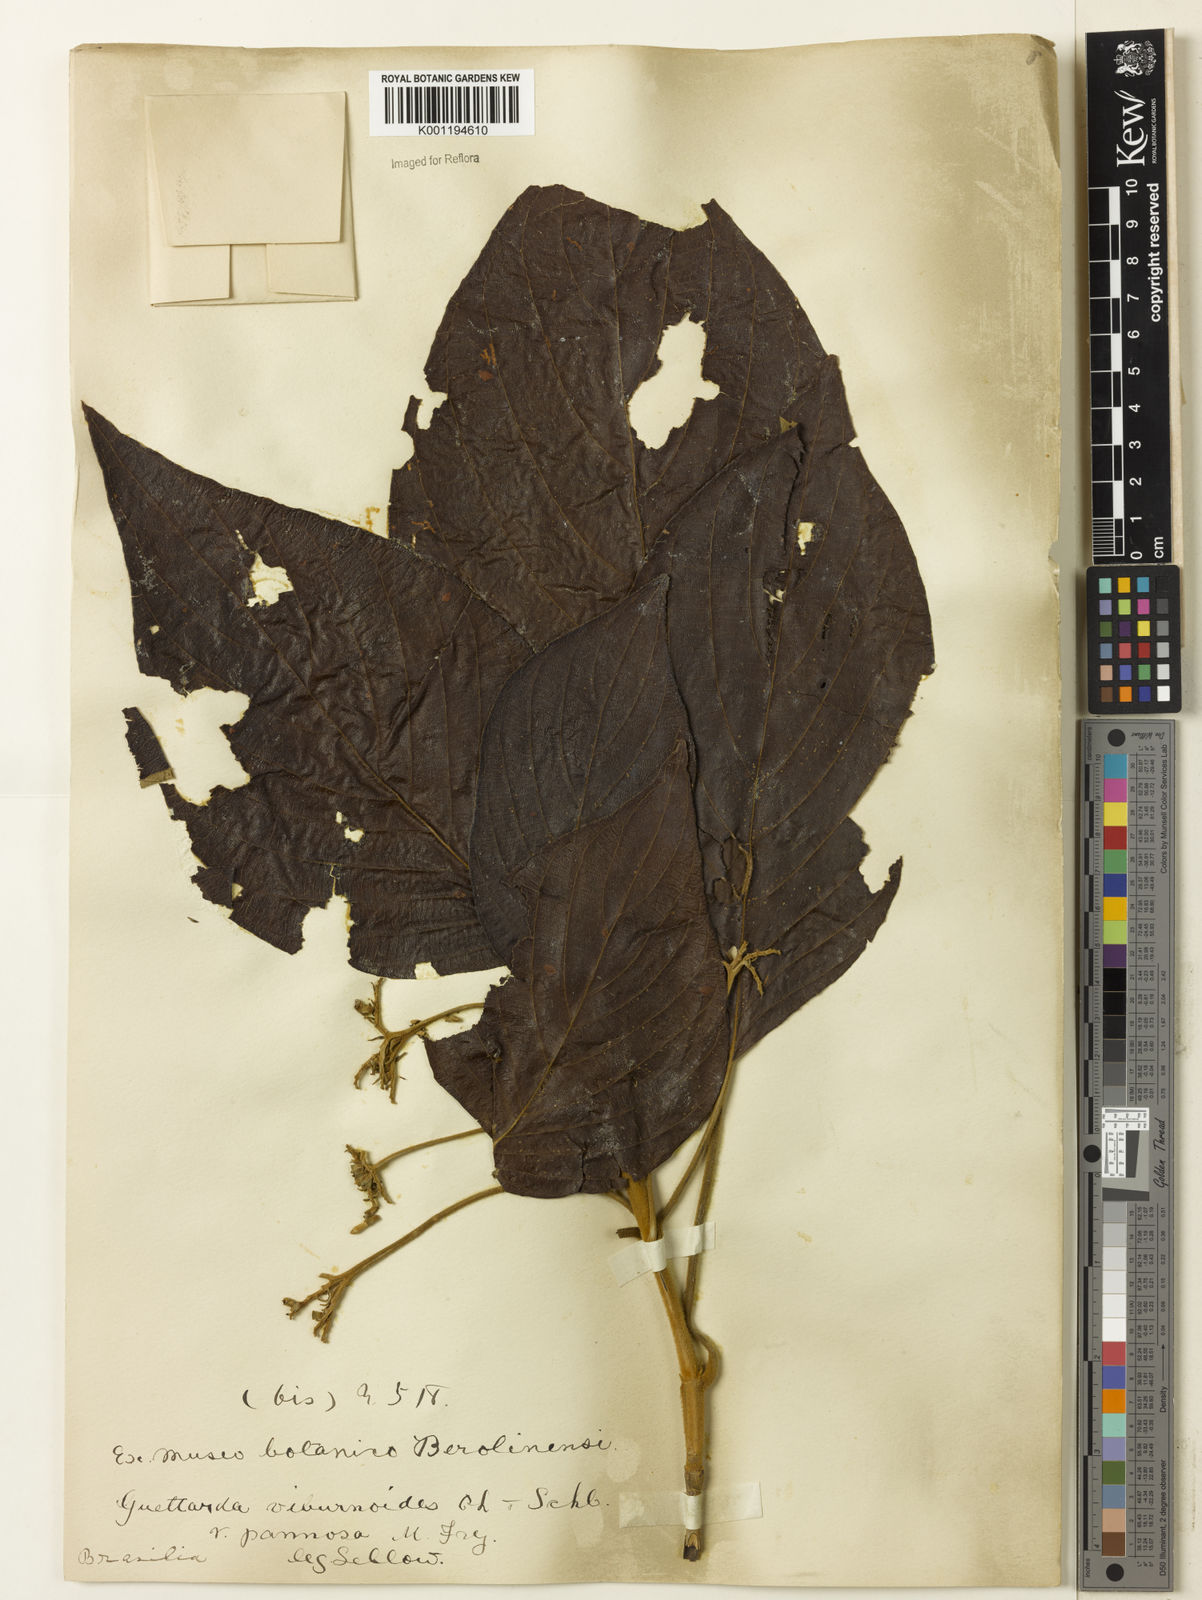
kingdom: Plantae
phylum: Tracheophyta
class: Magnoliopsida
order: Gentianales
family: Rubiaceae
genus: Guettarda
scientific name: Guettarda viburnoides
